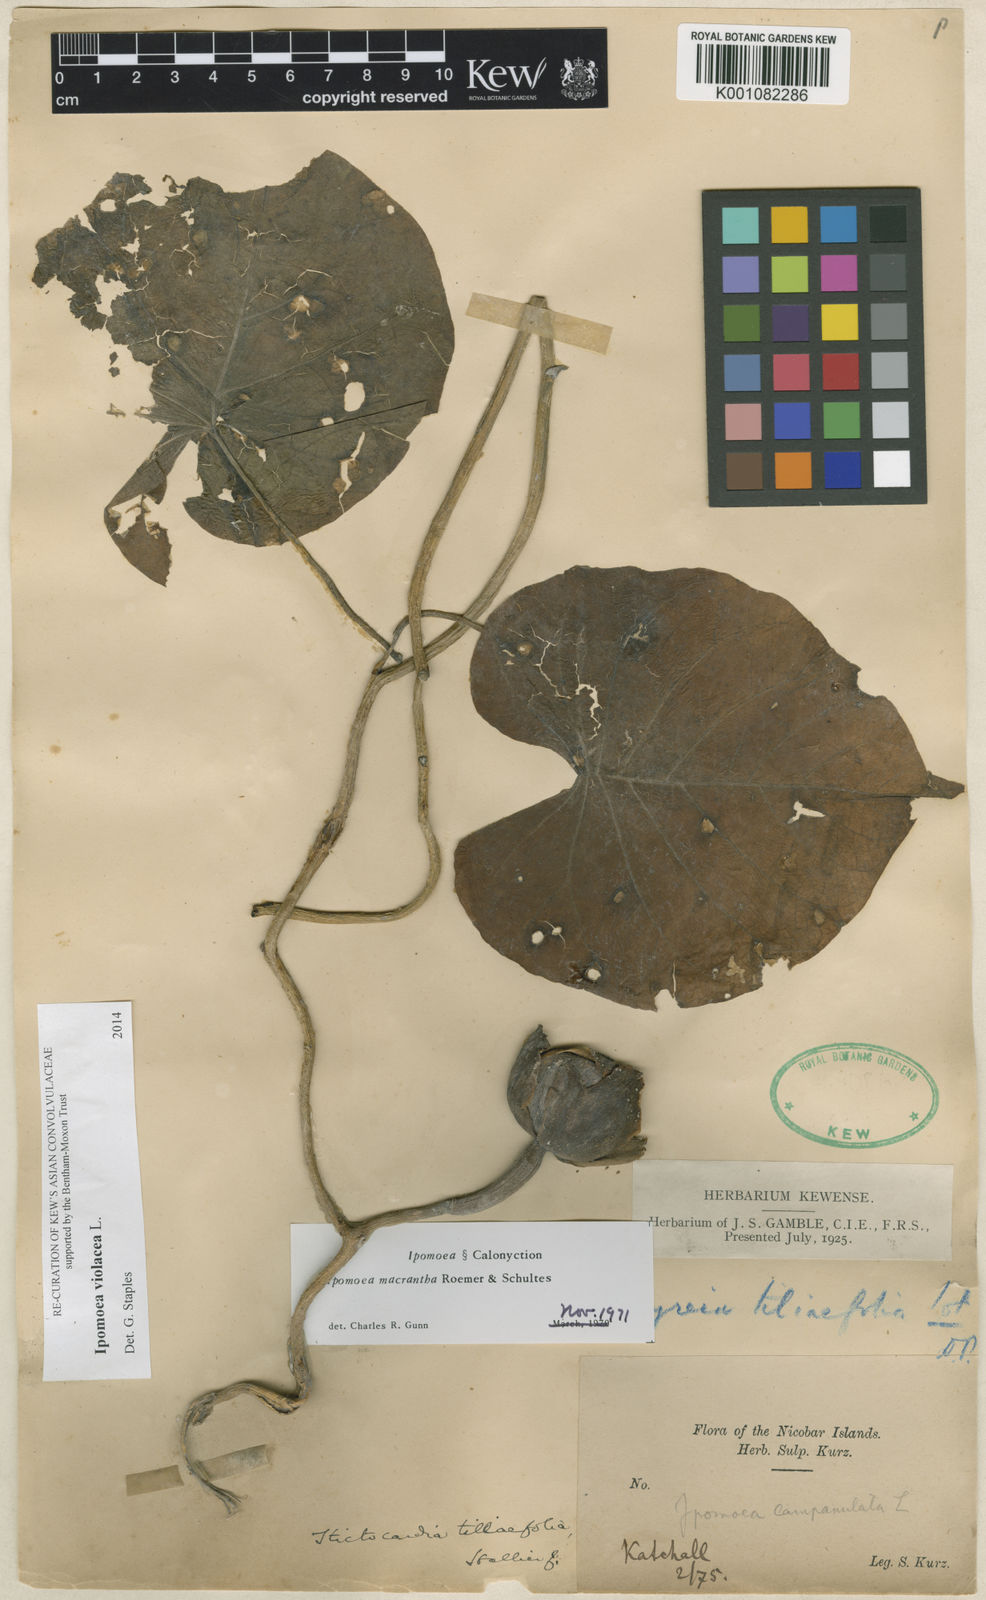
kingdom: Plantae
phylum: Tracheophyta
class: Magnoliopsida
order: Solanales
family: Convolvulaceae
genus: Ipomoea
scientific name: Ipomoea violacea
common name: Beach moonflower
